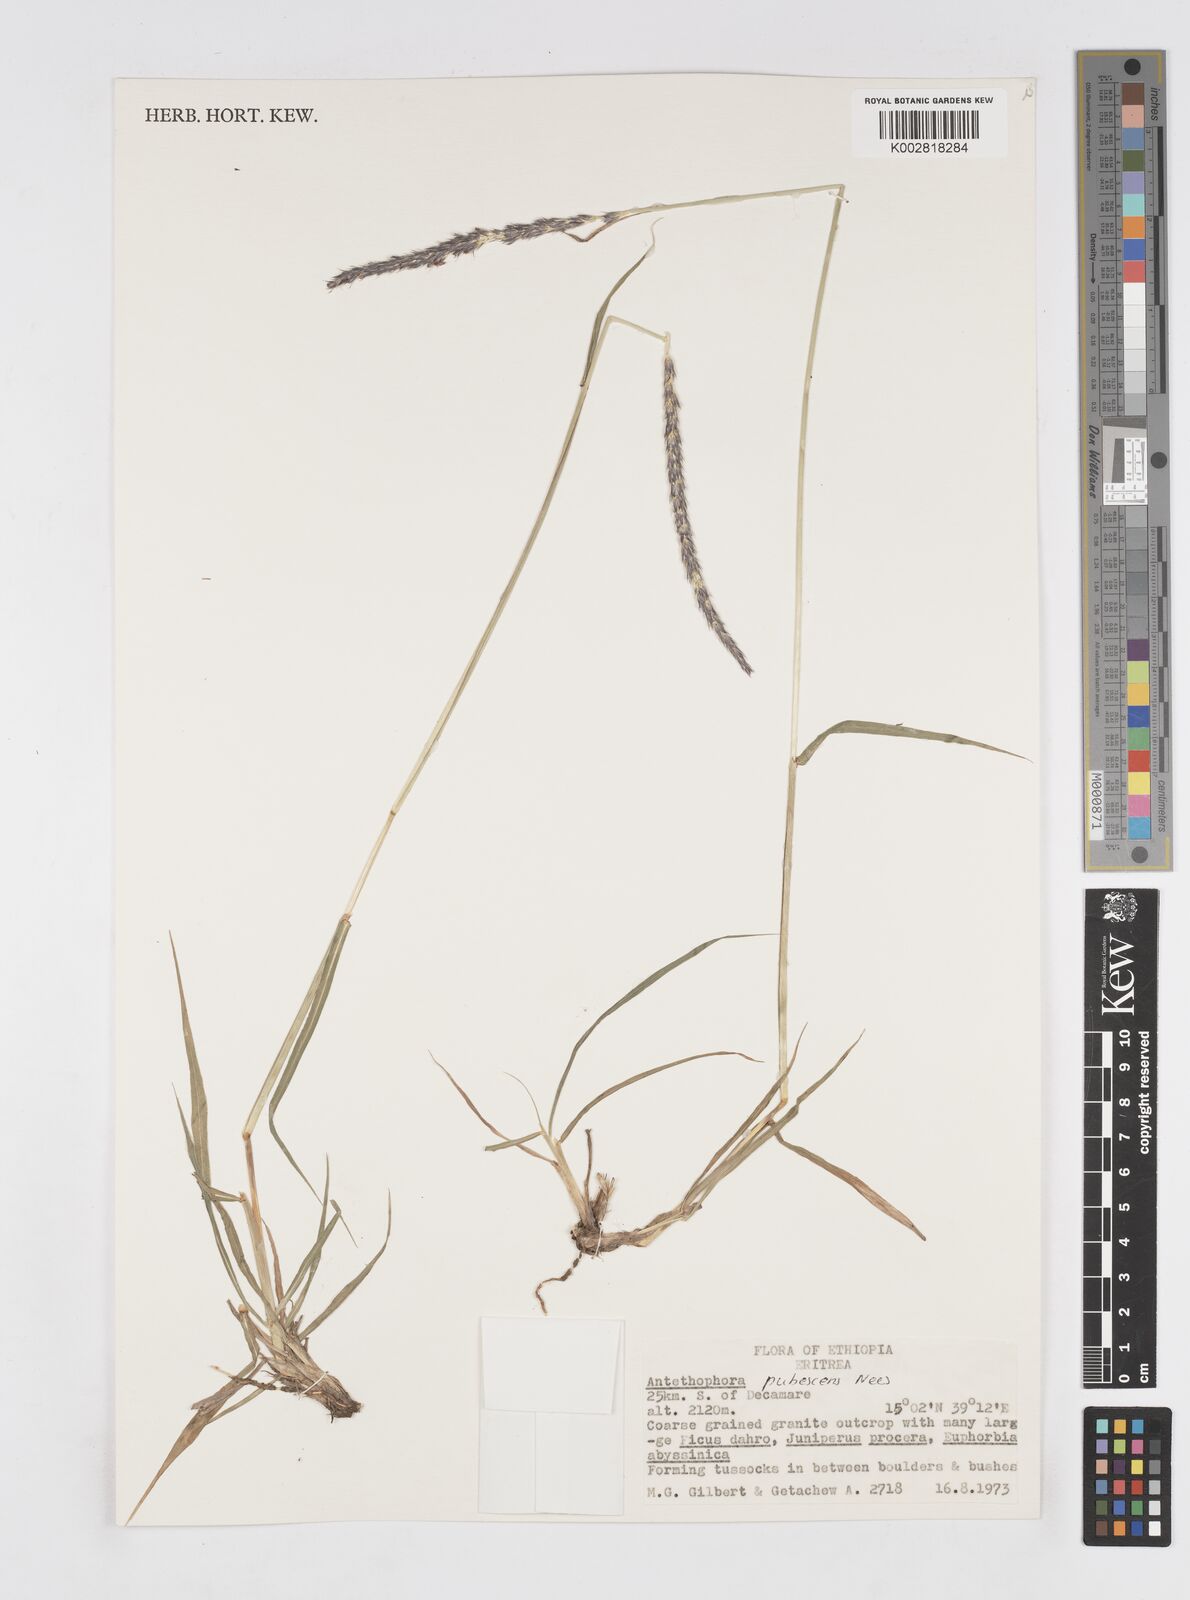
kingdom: Plantae
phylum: Tracheophyta
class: Liliopsida
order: Poales
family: Poaceae
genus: Anthephora
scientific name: Anthephora pubescens
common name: Wool grass
